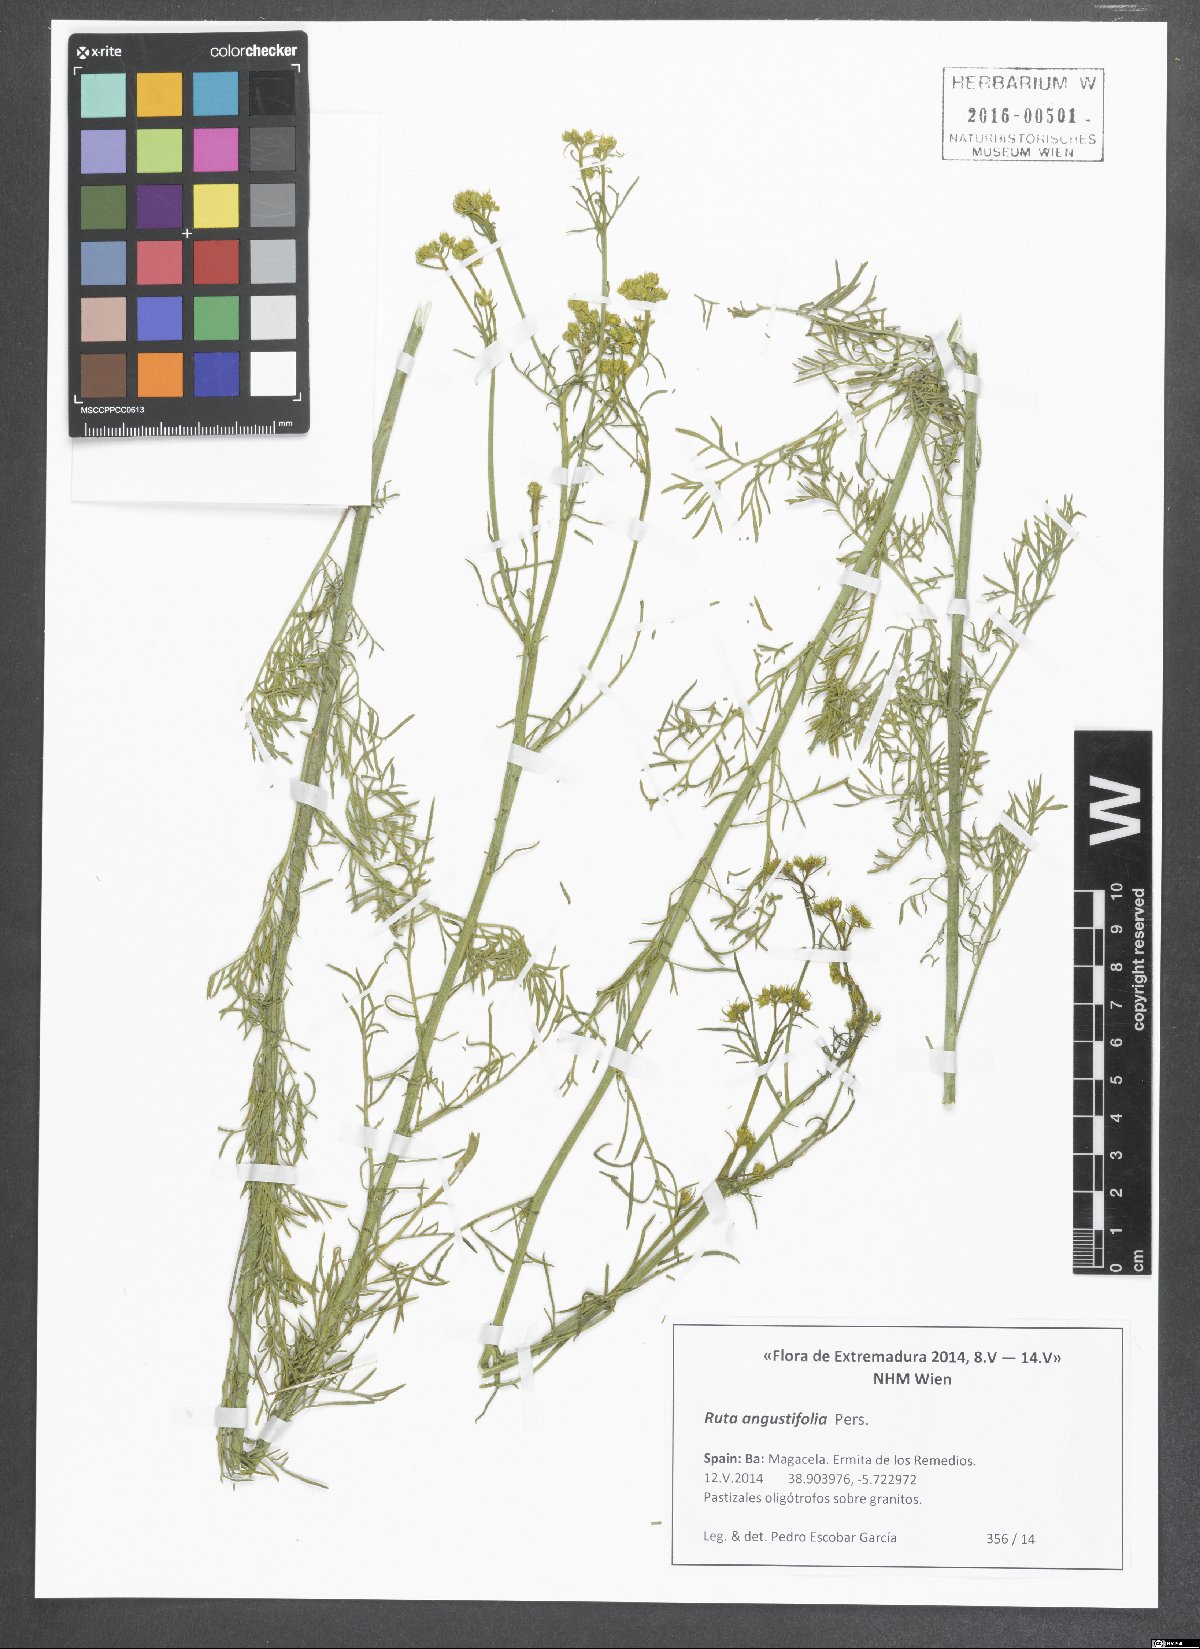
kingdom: Plantae
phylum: Tracheophyta
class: Magnoliopsida
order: Sapindales
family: Rutaceae
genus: Ruta
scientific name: Ruta angustifolia
